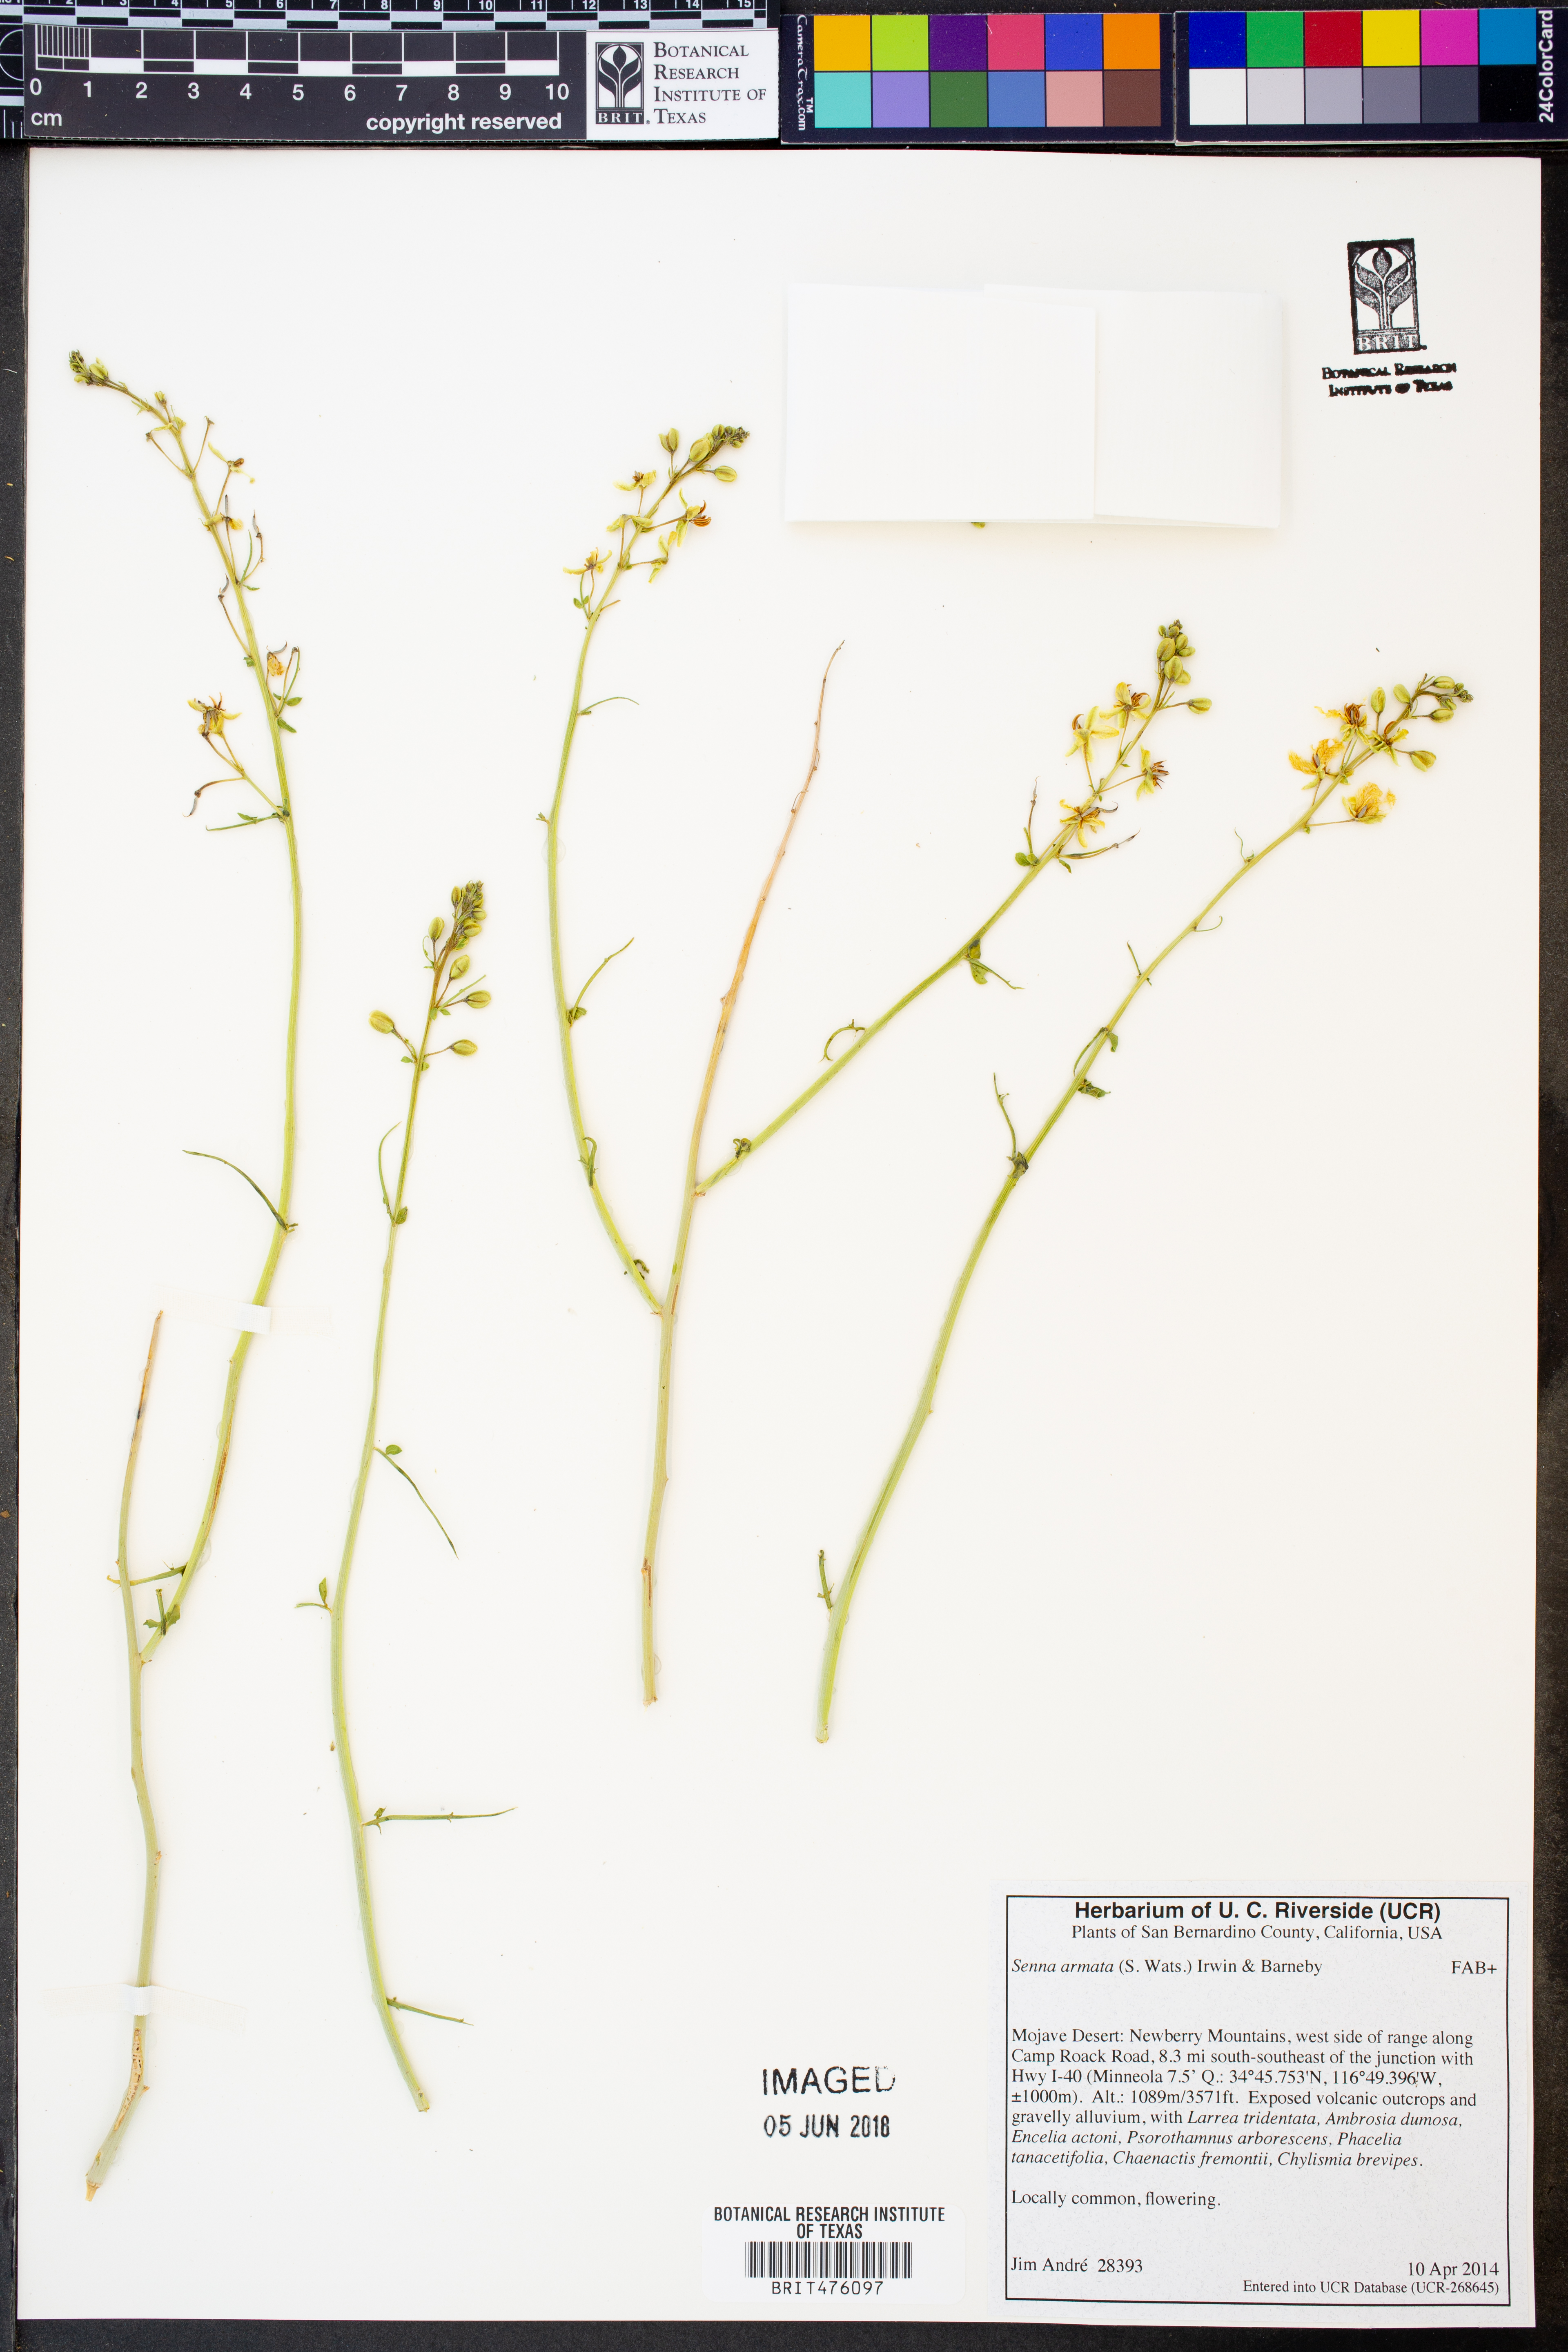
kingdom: Plantae
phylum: Tracheophyta
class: Magnoliopsida
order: Fabales
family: Fabaceae
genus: Senna
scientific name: Senna armata
